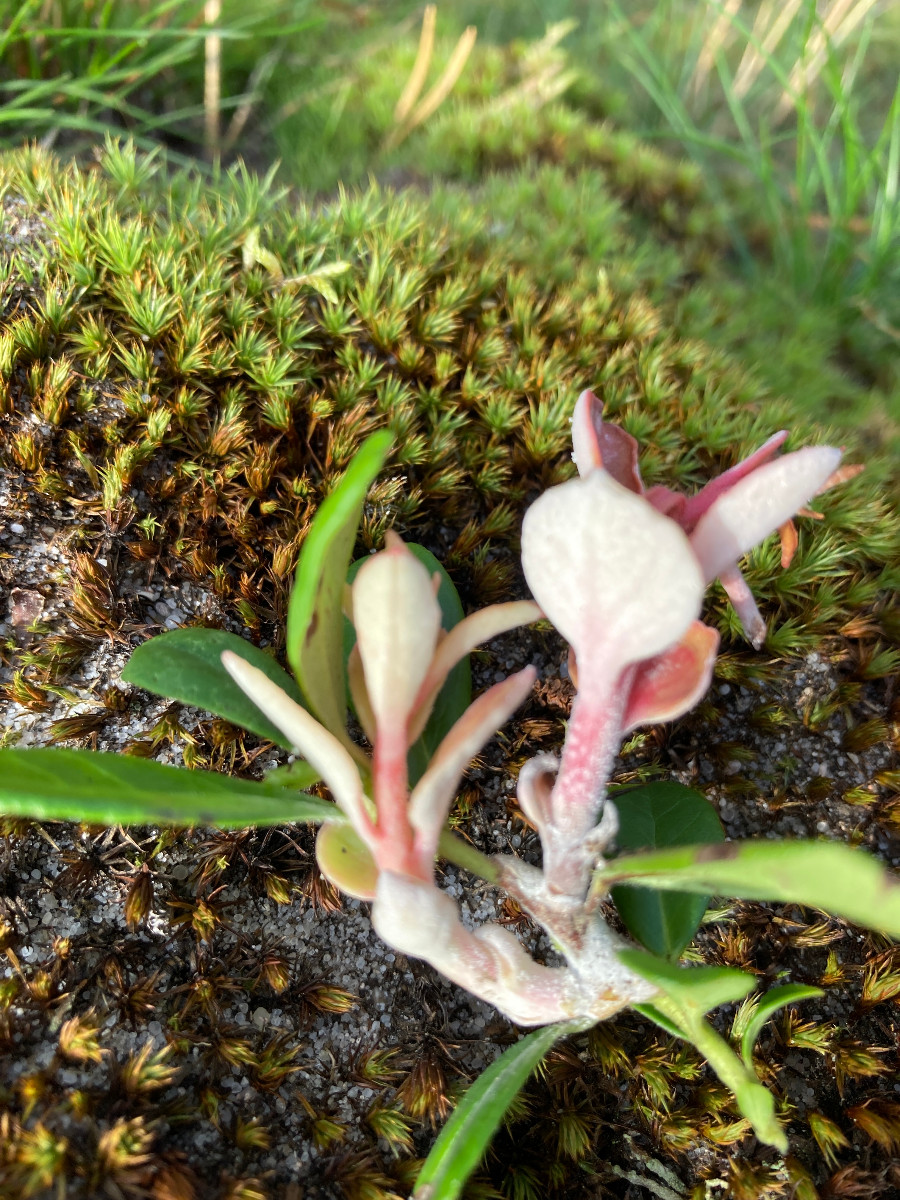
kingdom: Fungi
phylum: Basidiomycota
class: Exobasidiomycetes
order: Exobasidiales
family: Exobasidiaceae
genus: Exobasidium
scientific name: Exobasidium vaccinii
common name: tyttebærblad-bøllesvamp
